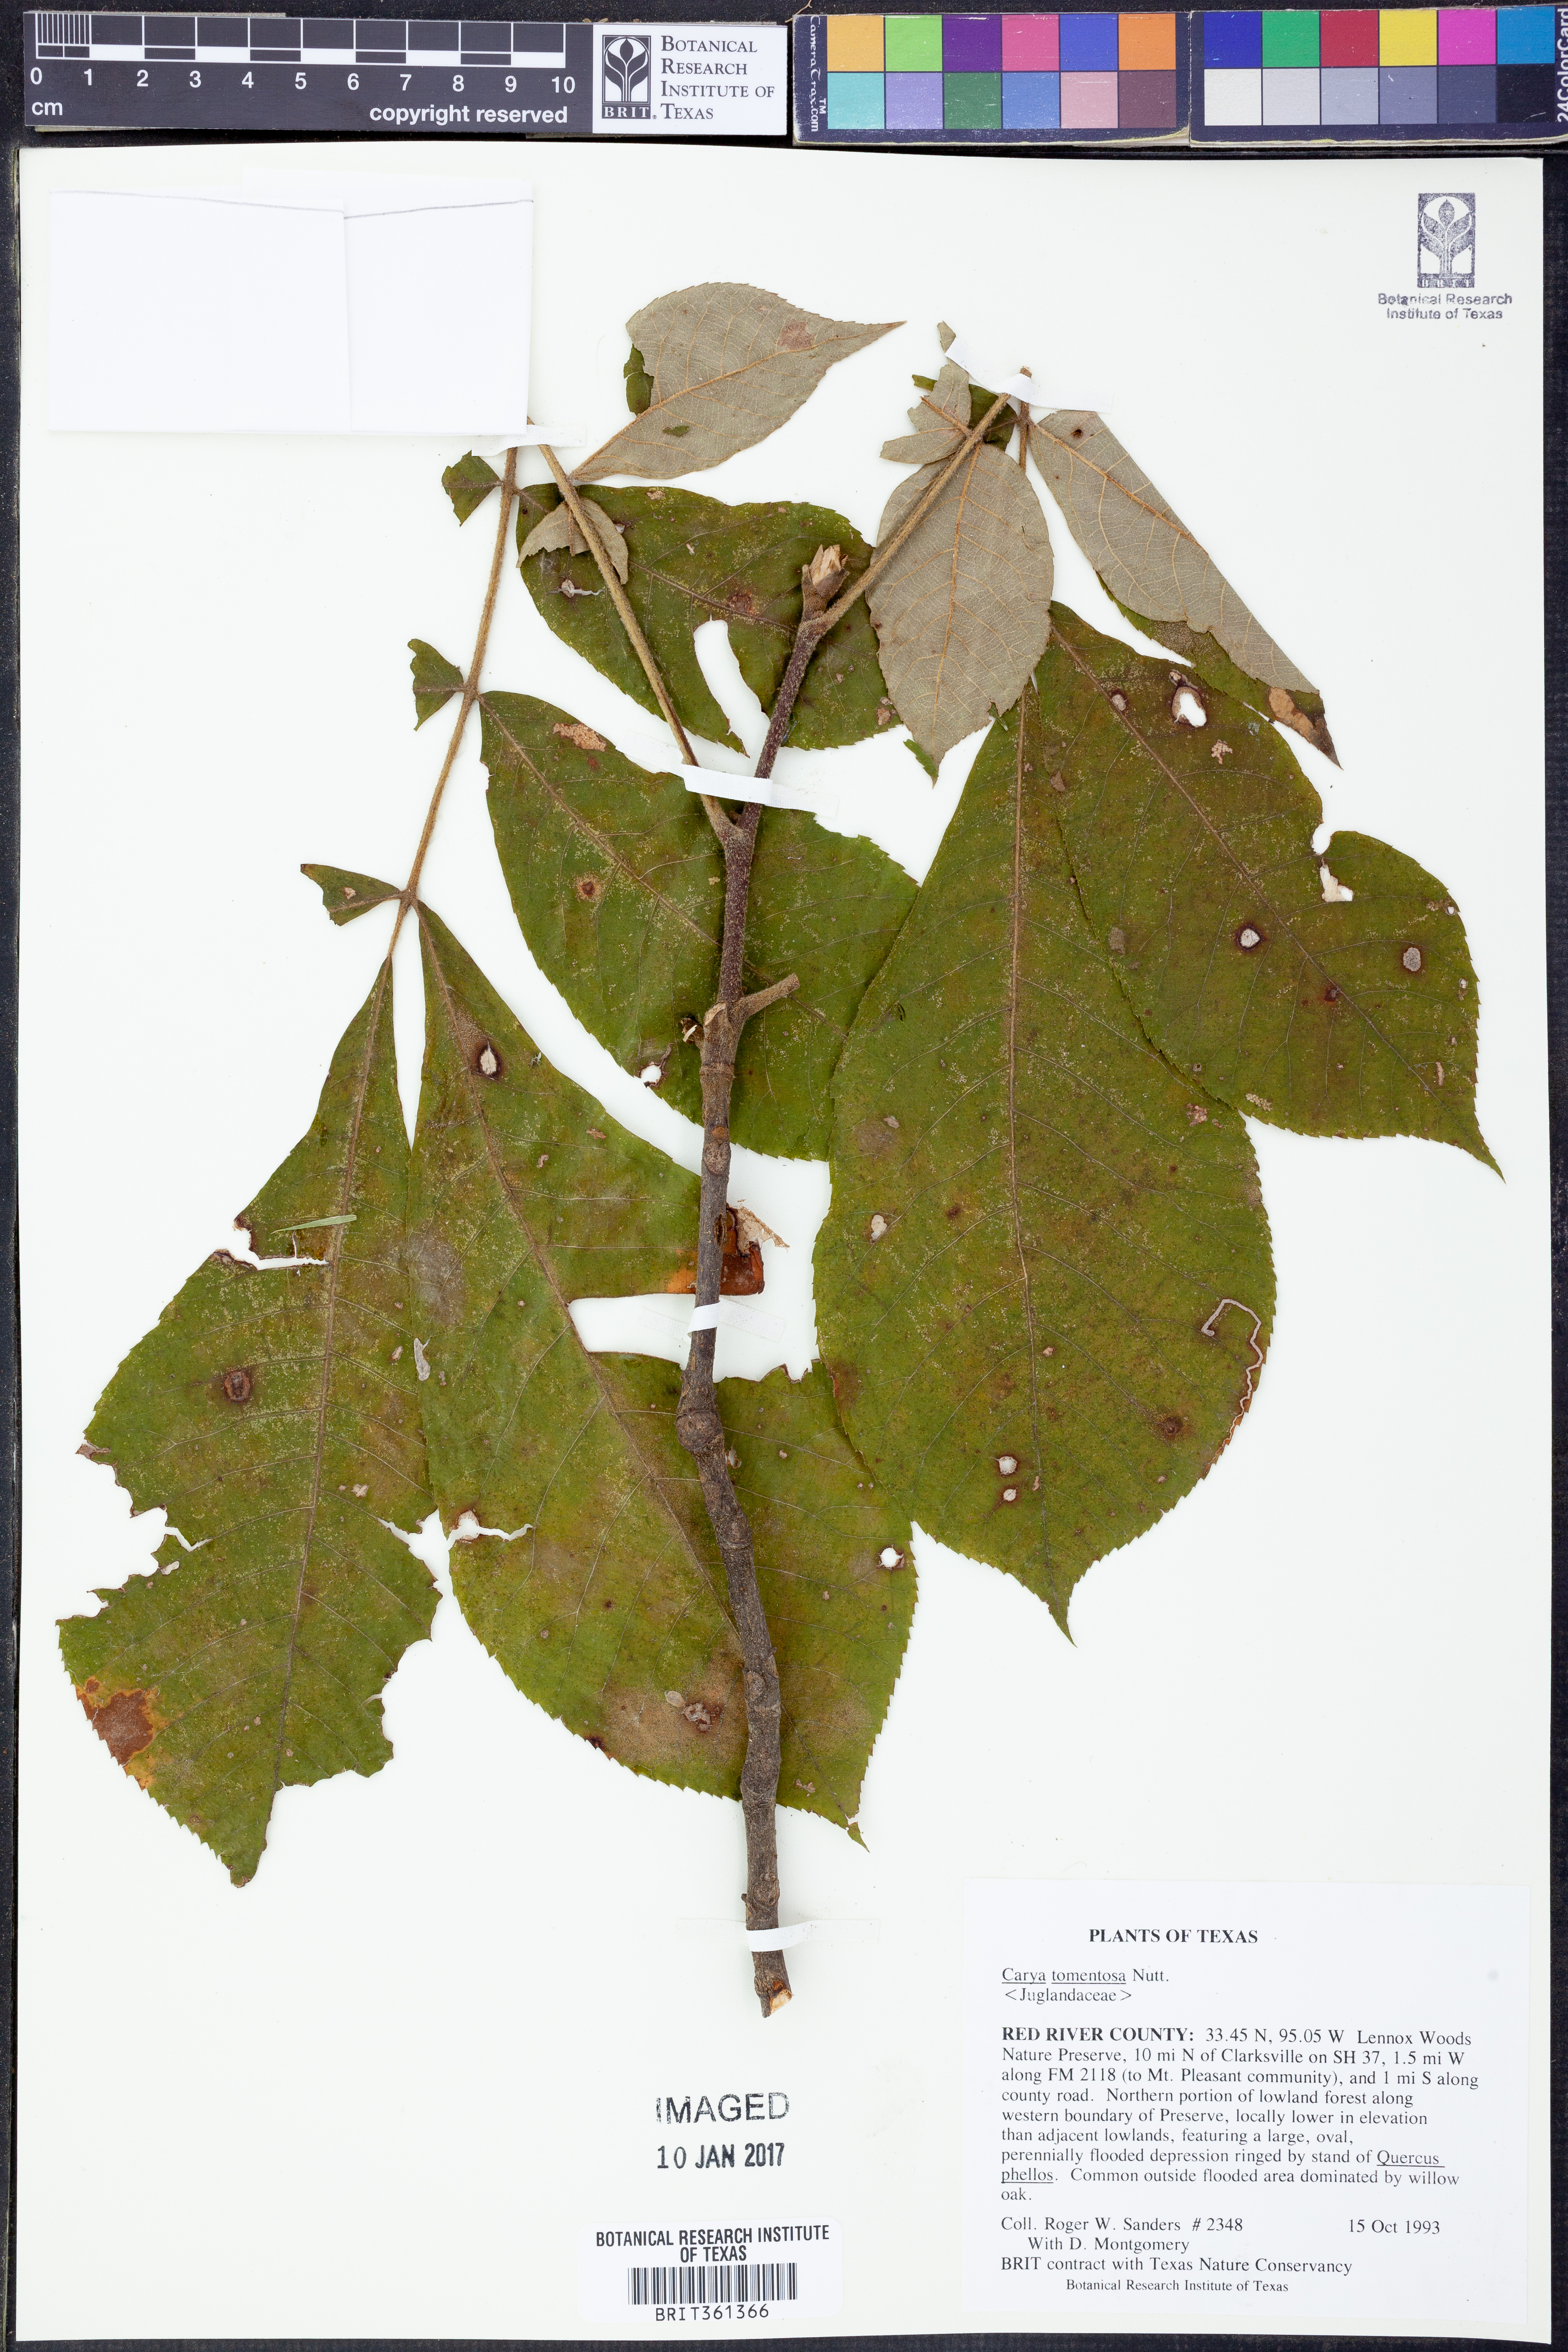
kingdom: Plantae
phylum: Tracheophyta
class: Magnoliopsida
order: Fagales
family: Juglandaceae
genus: Carya
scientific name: Carya alba
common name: Mockernut hickory
